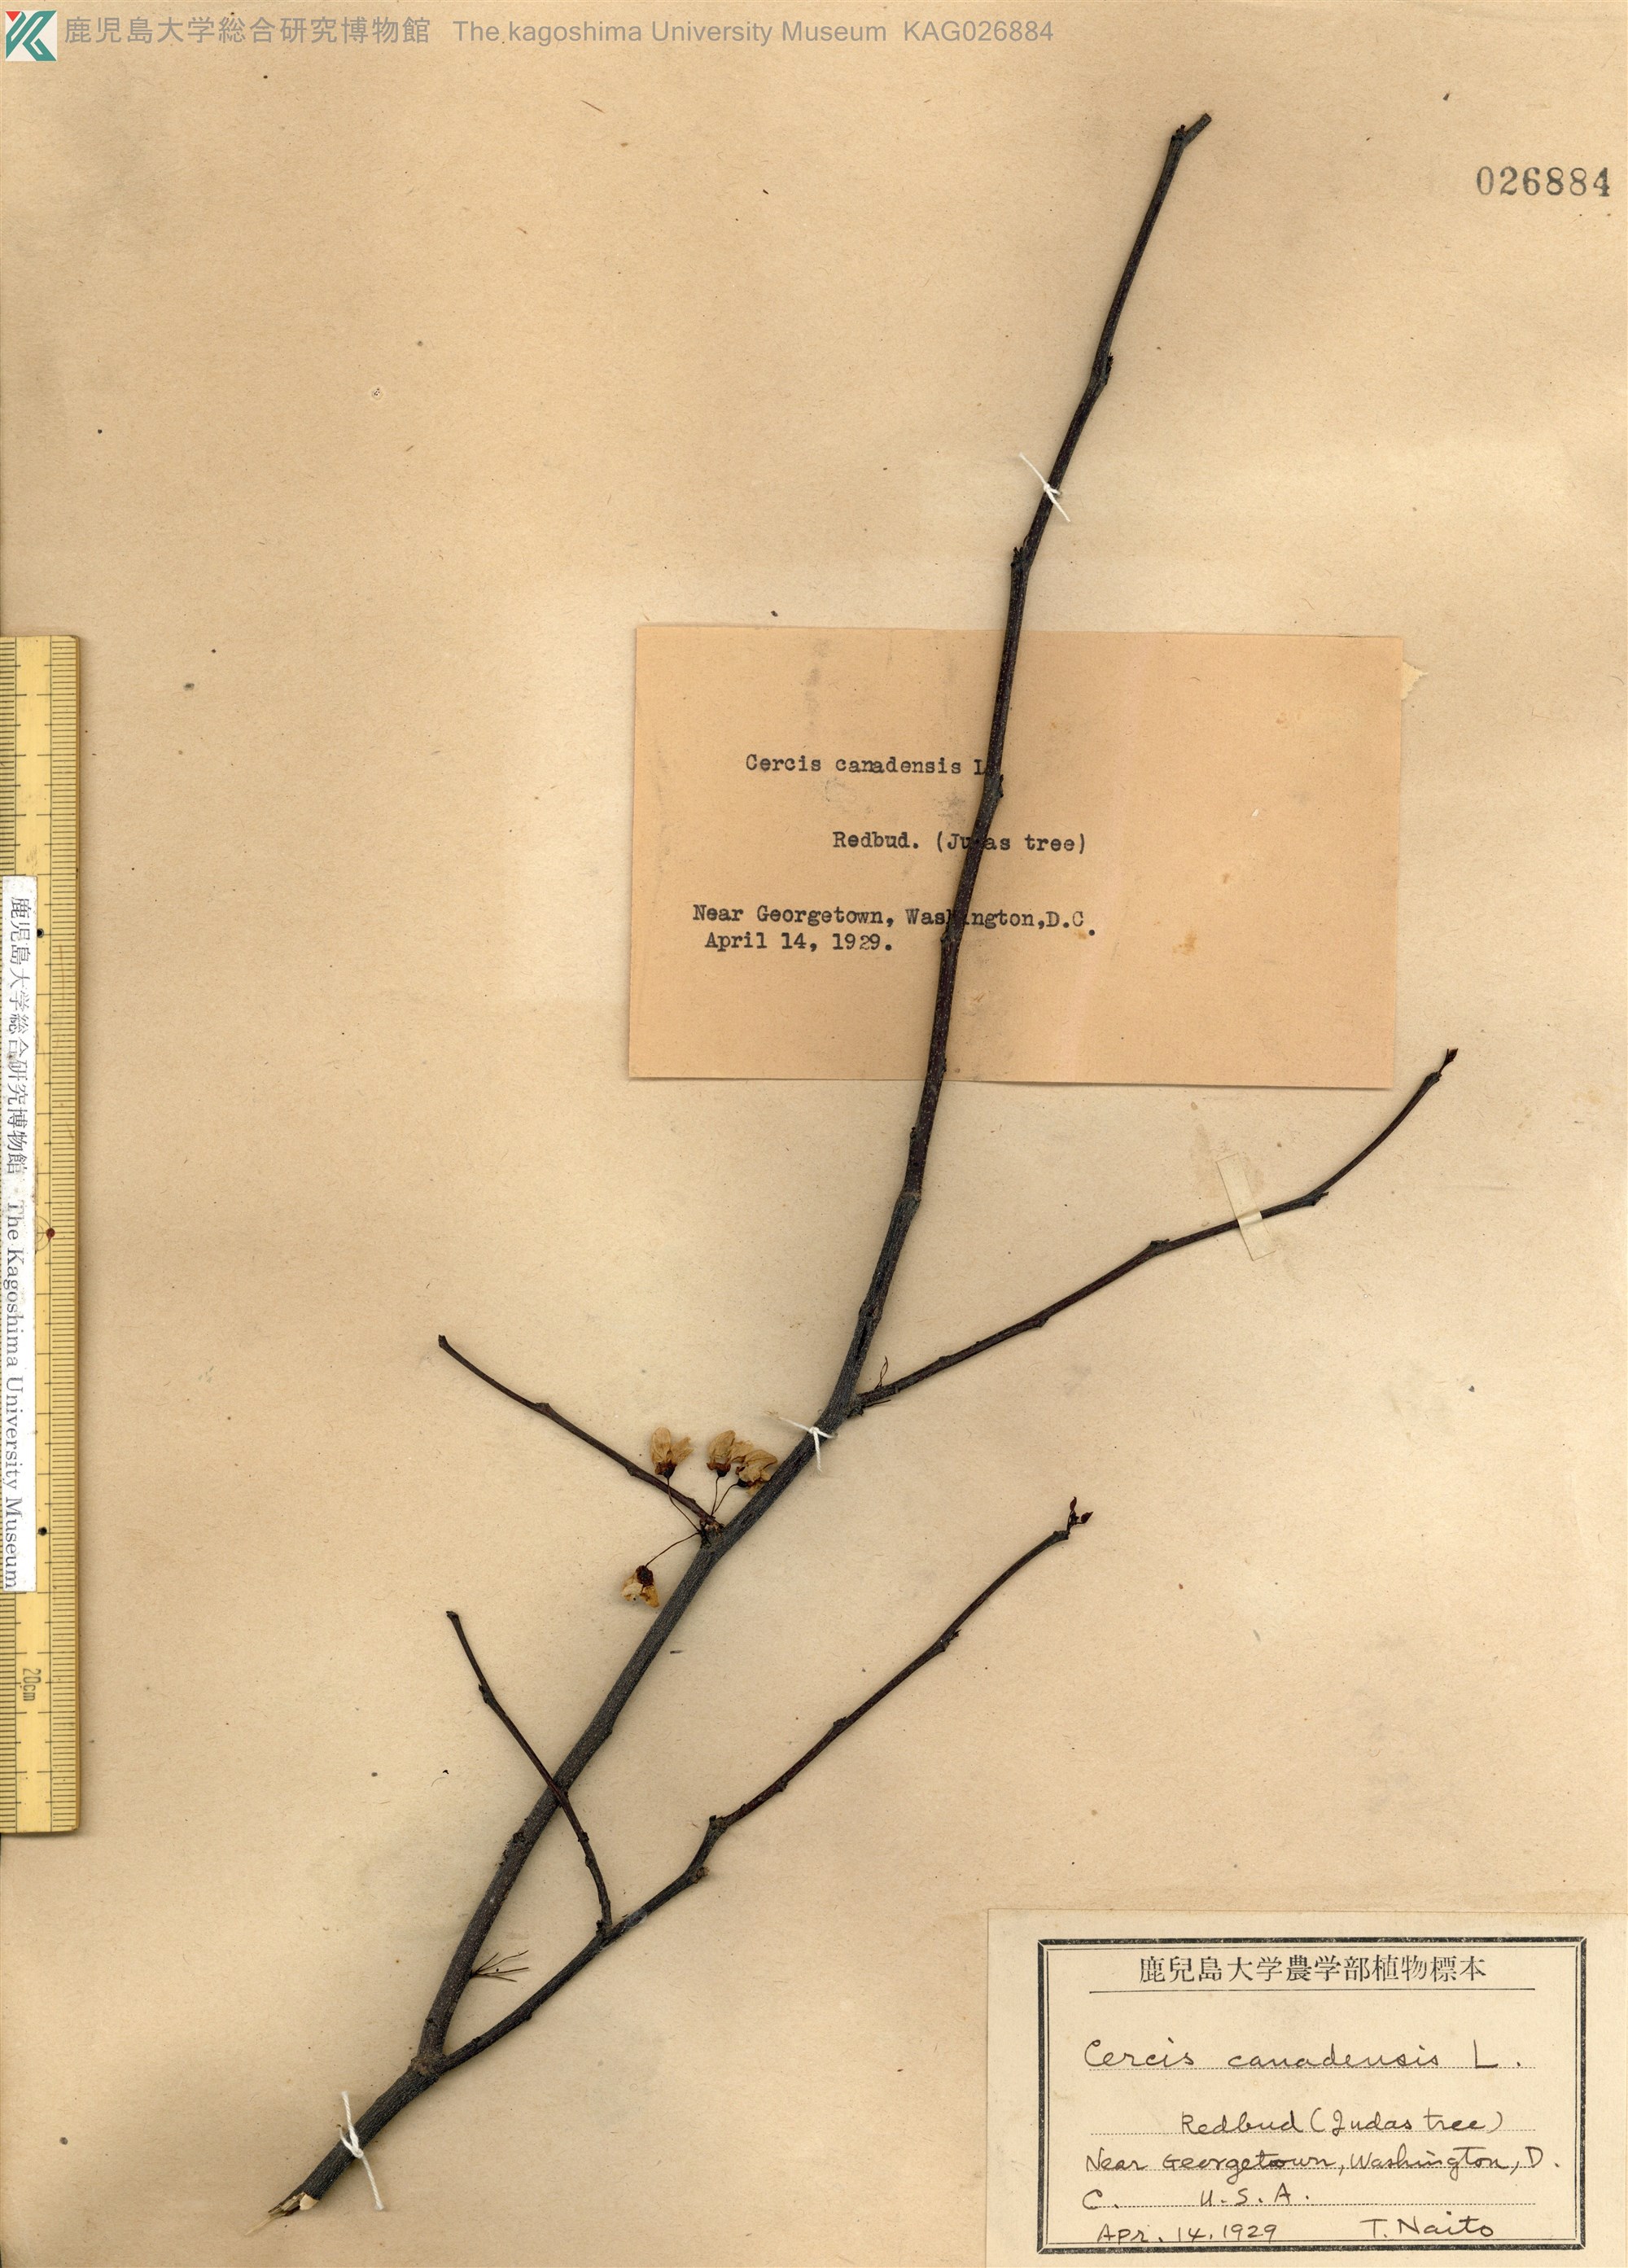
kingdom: Plantae
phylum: Tracheophyta
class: Magnoliopsida
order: Fabales
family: Fabaceae
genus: Cercis
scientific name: Cercis canadensis
